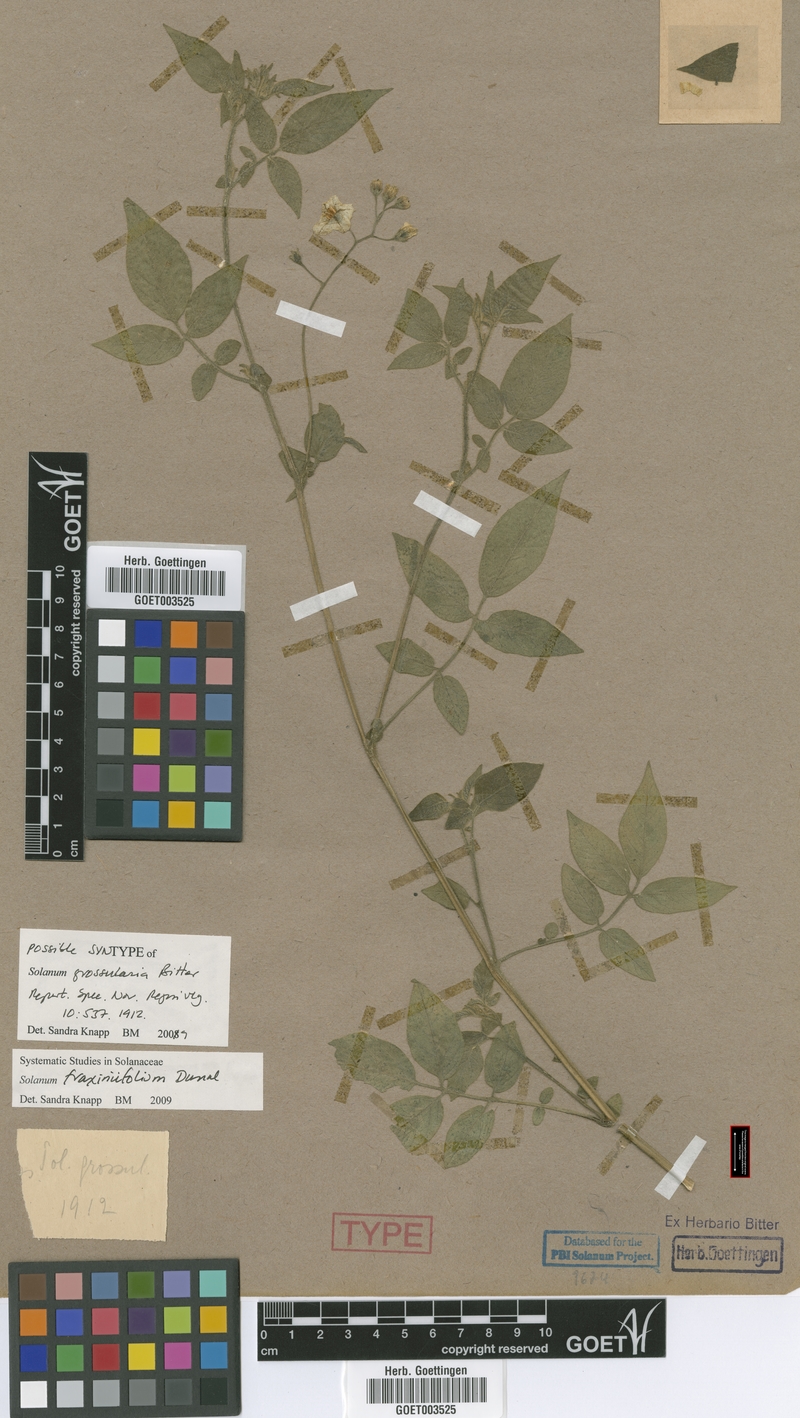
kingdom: Plantae
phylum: Tracheophyta
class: Magnoliopsida
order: Solanales
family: Solanaceae
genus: Solanum
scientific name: Solanum fraxinifolium
